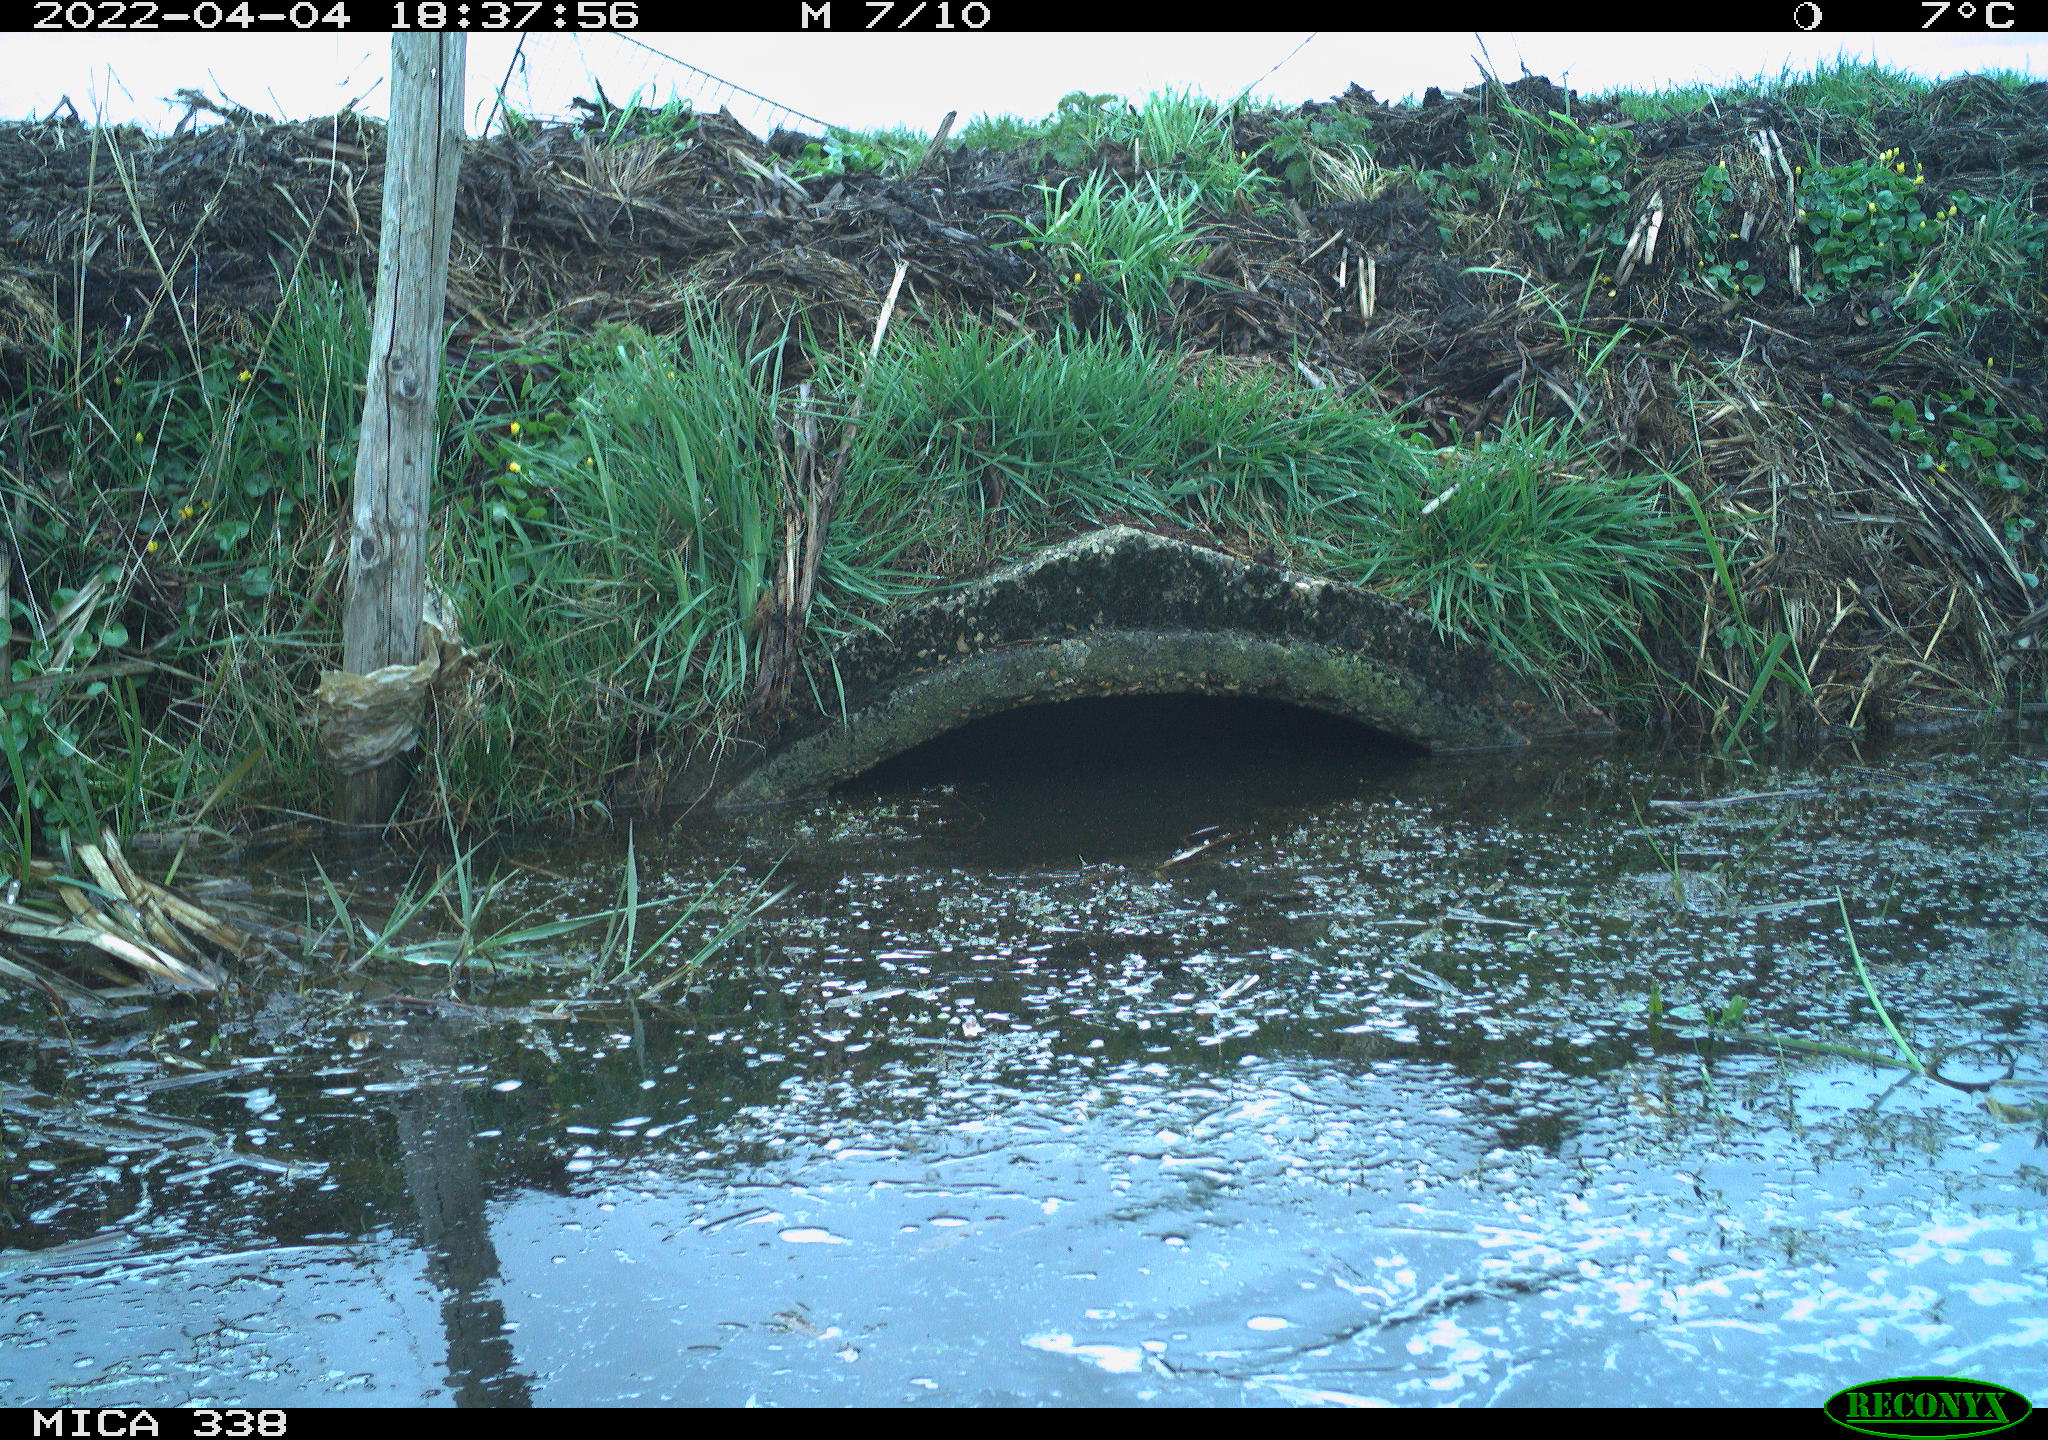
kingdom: Animalia
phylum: Chordata
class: Aves
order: Anseriformes
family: Anatidae
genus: Cygnus
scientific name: Cygnus olor
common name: Mute swan
